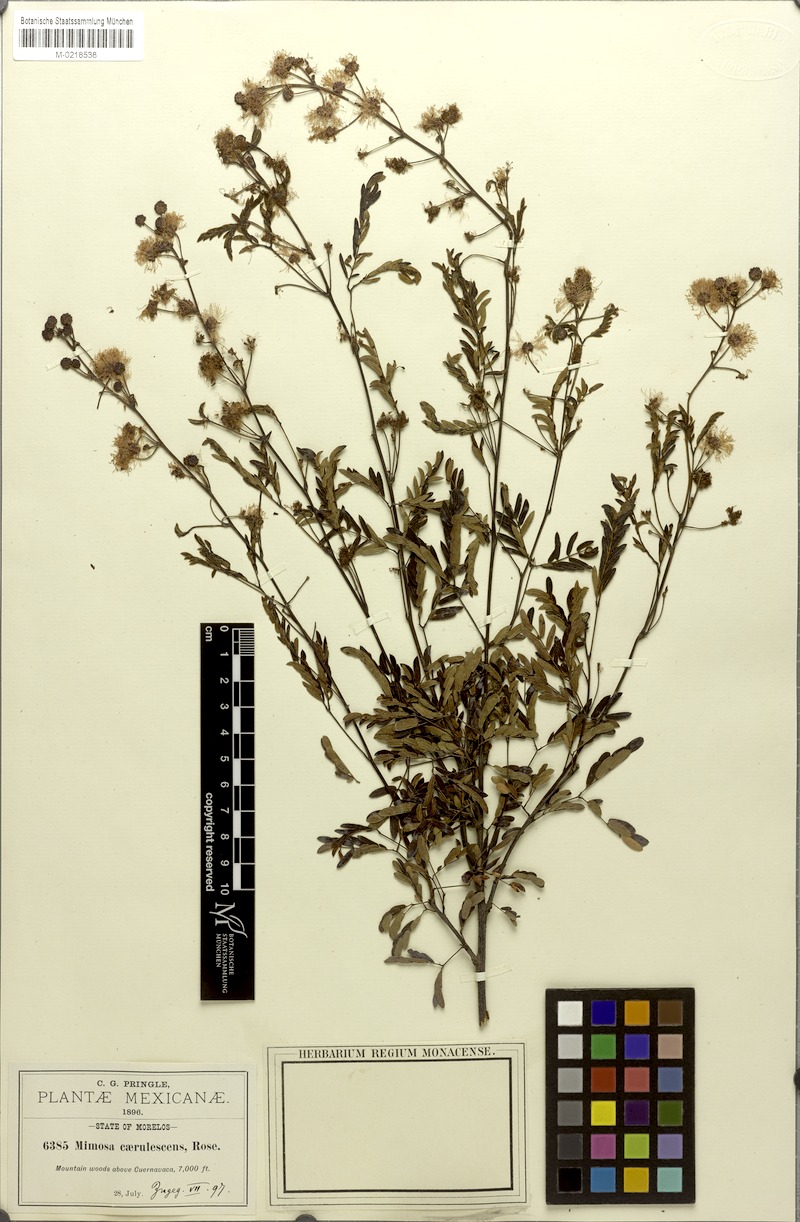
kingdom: Plantae
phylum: Tracheophyta
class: Magnoliopsida
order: Fabales
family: Fabaceae
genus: Mimosa
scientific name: Mimosa caerulea
